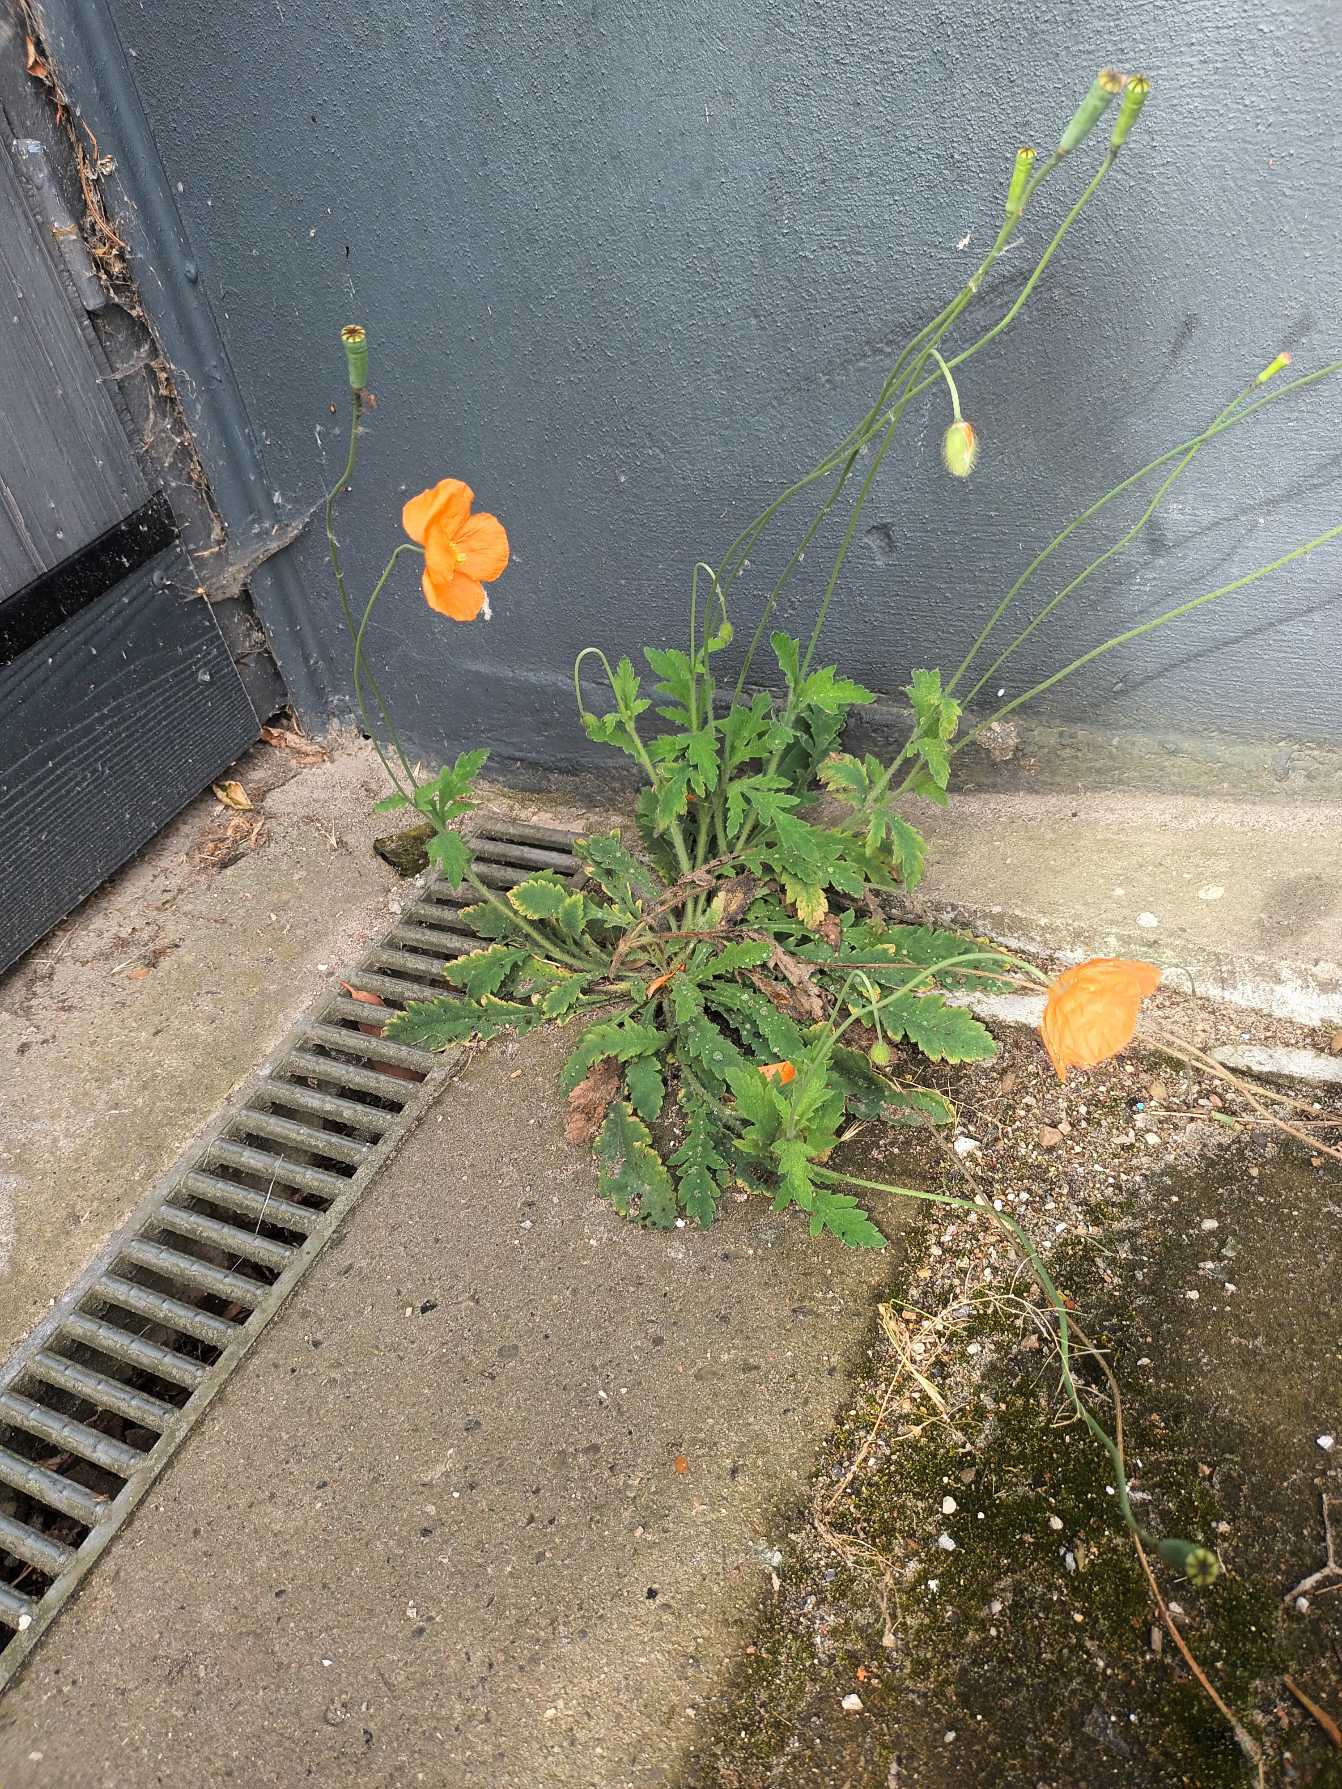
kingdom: Plantae
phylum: Tracheophyta
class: Magnoliopsida
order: Ranunculales
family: Papaveraceae
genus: Papaver
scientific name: Papaver atlanticum
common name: Atlas-valmue
